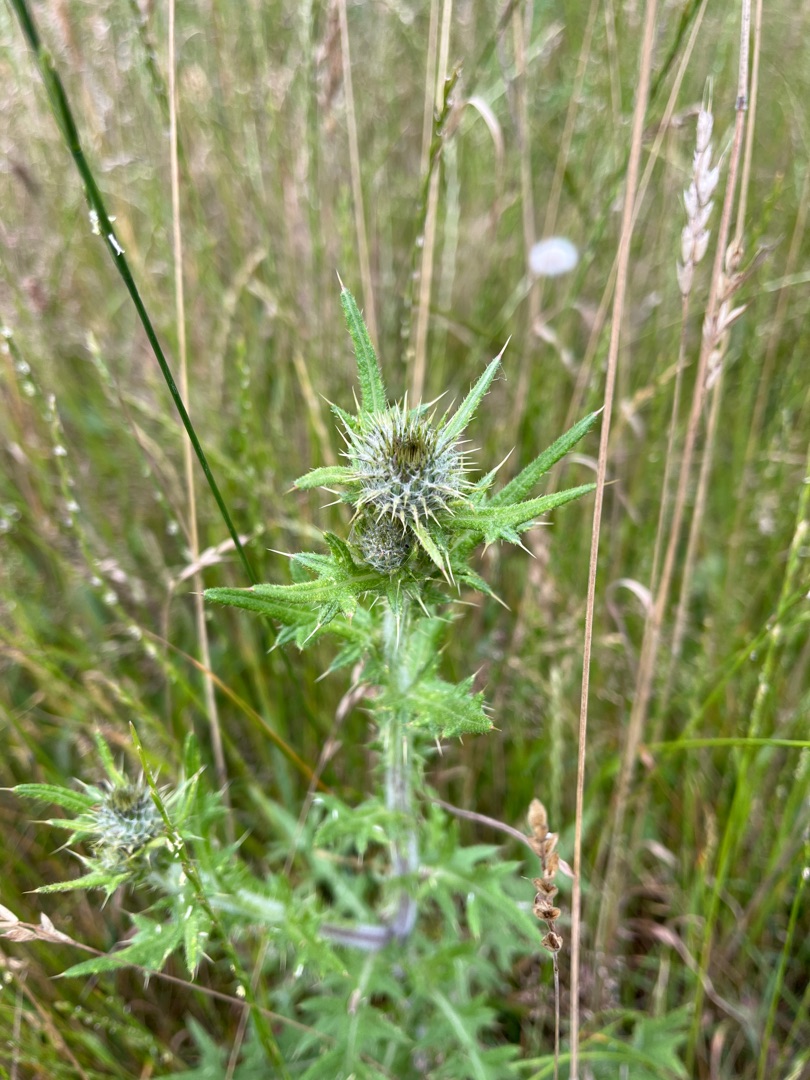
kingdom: Plantae
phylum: Tracheophyta
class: Magnoliopsida
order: Asterales
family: Asteraceae
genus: Cirsium
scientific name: Cirsium vulgare
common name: Horse-tidsel
